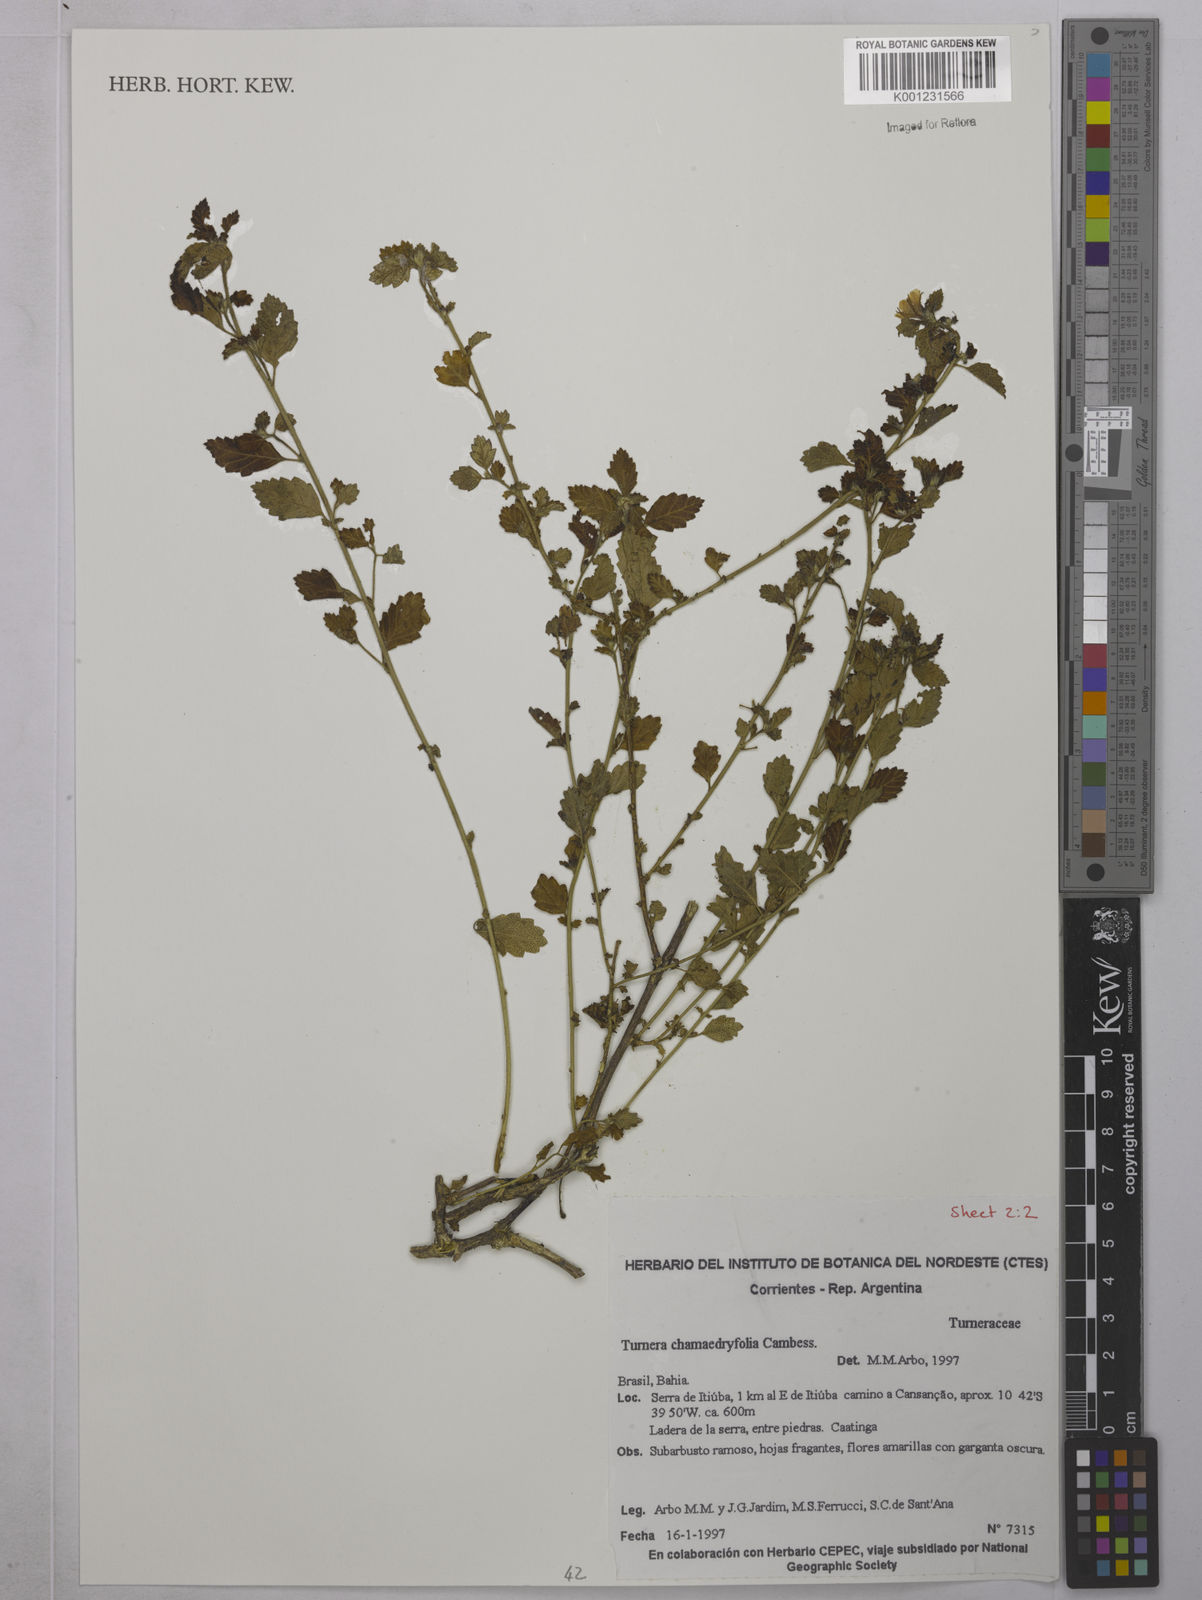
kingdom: Plantae
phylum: Tracheophyta
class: Magnoliopsida
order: Malpighiales
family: Turneraceae
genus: Turnera
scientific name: Turnera chamaedrifolia
